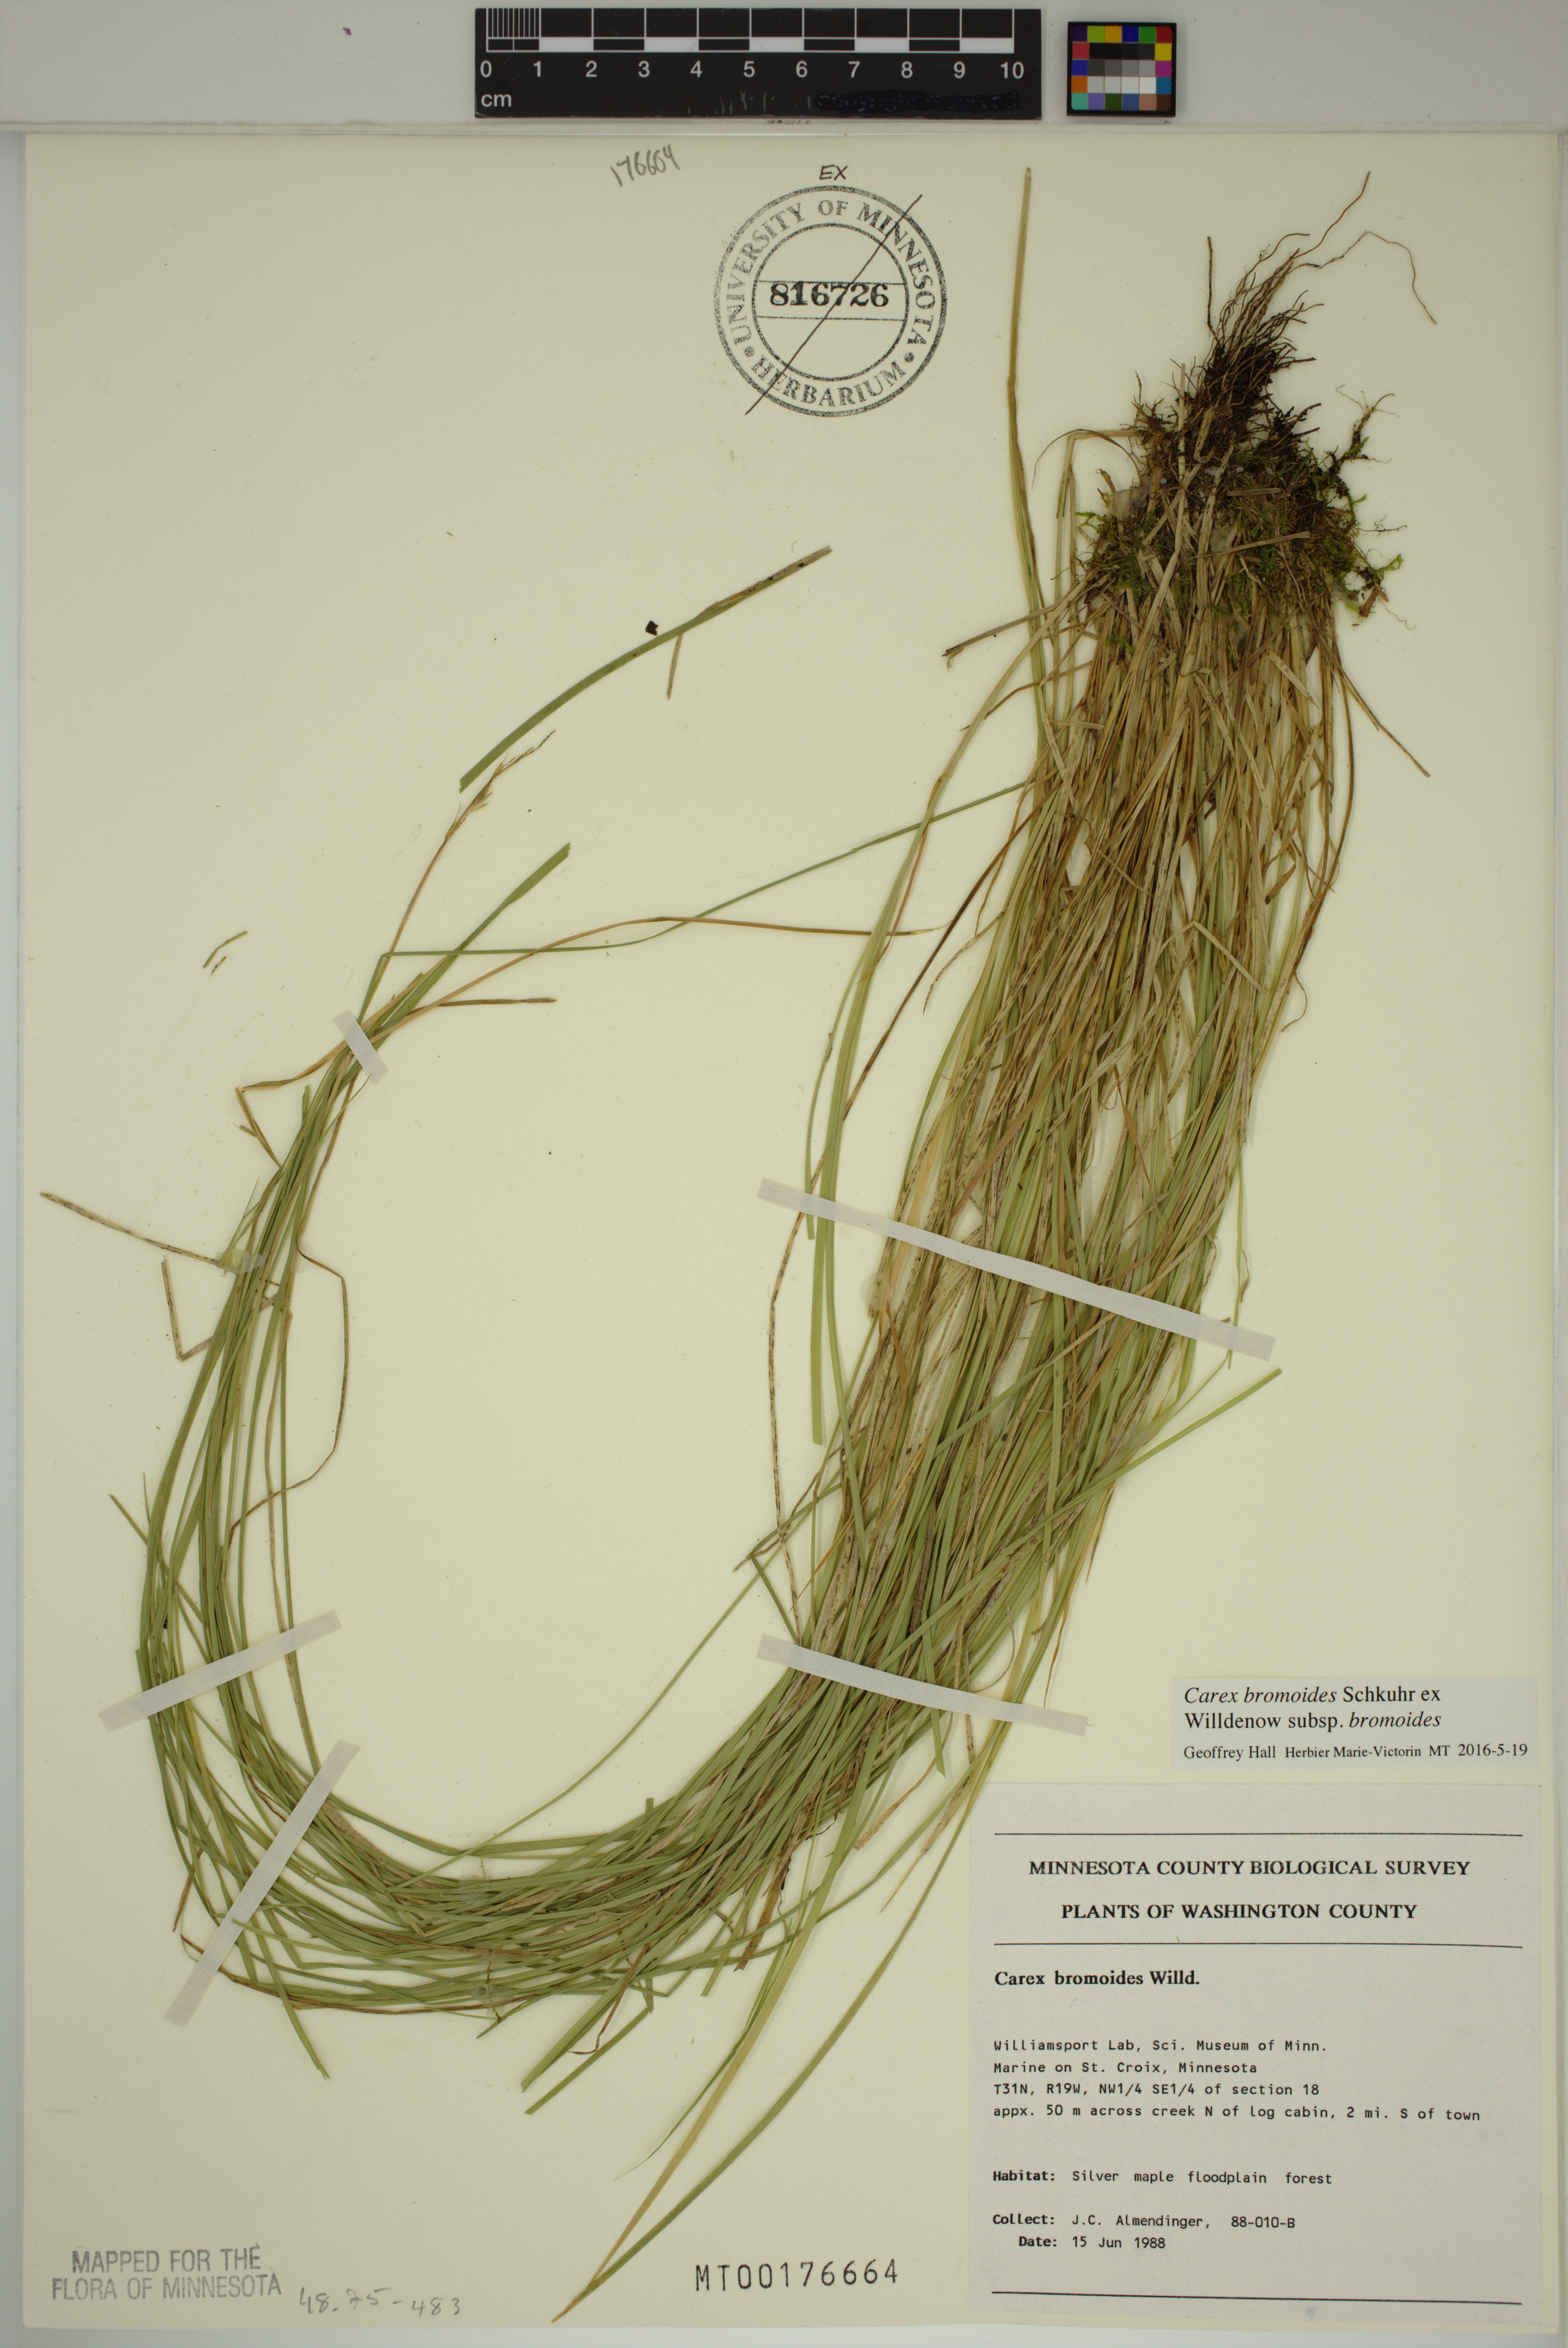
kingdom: Plantae
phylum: Tracheophyta
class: Liliopsida
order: Poales
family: Cyperaceae
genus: Carex
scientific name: Carex bromoides
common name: Brome hummock sedge
